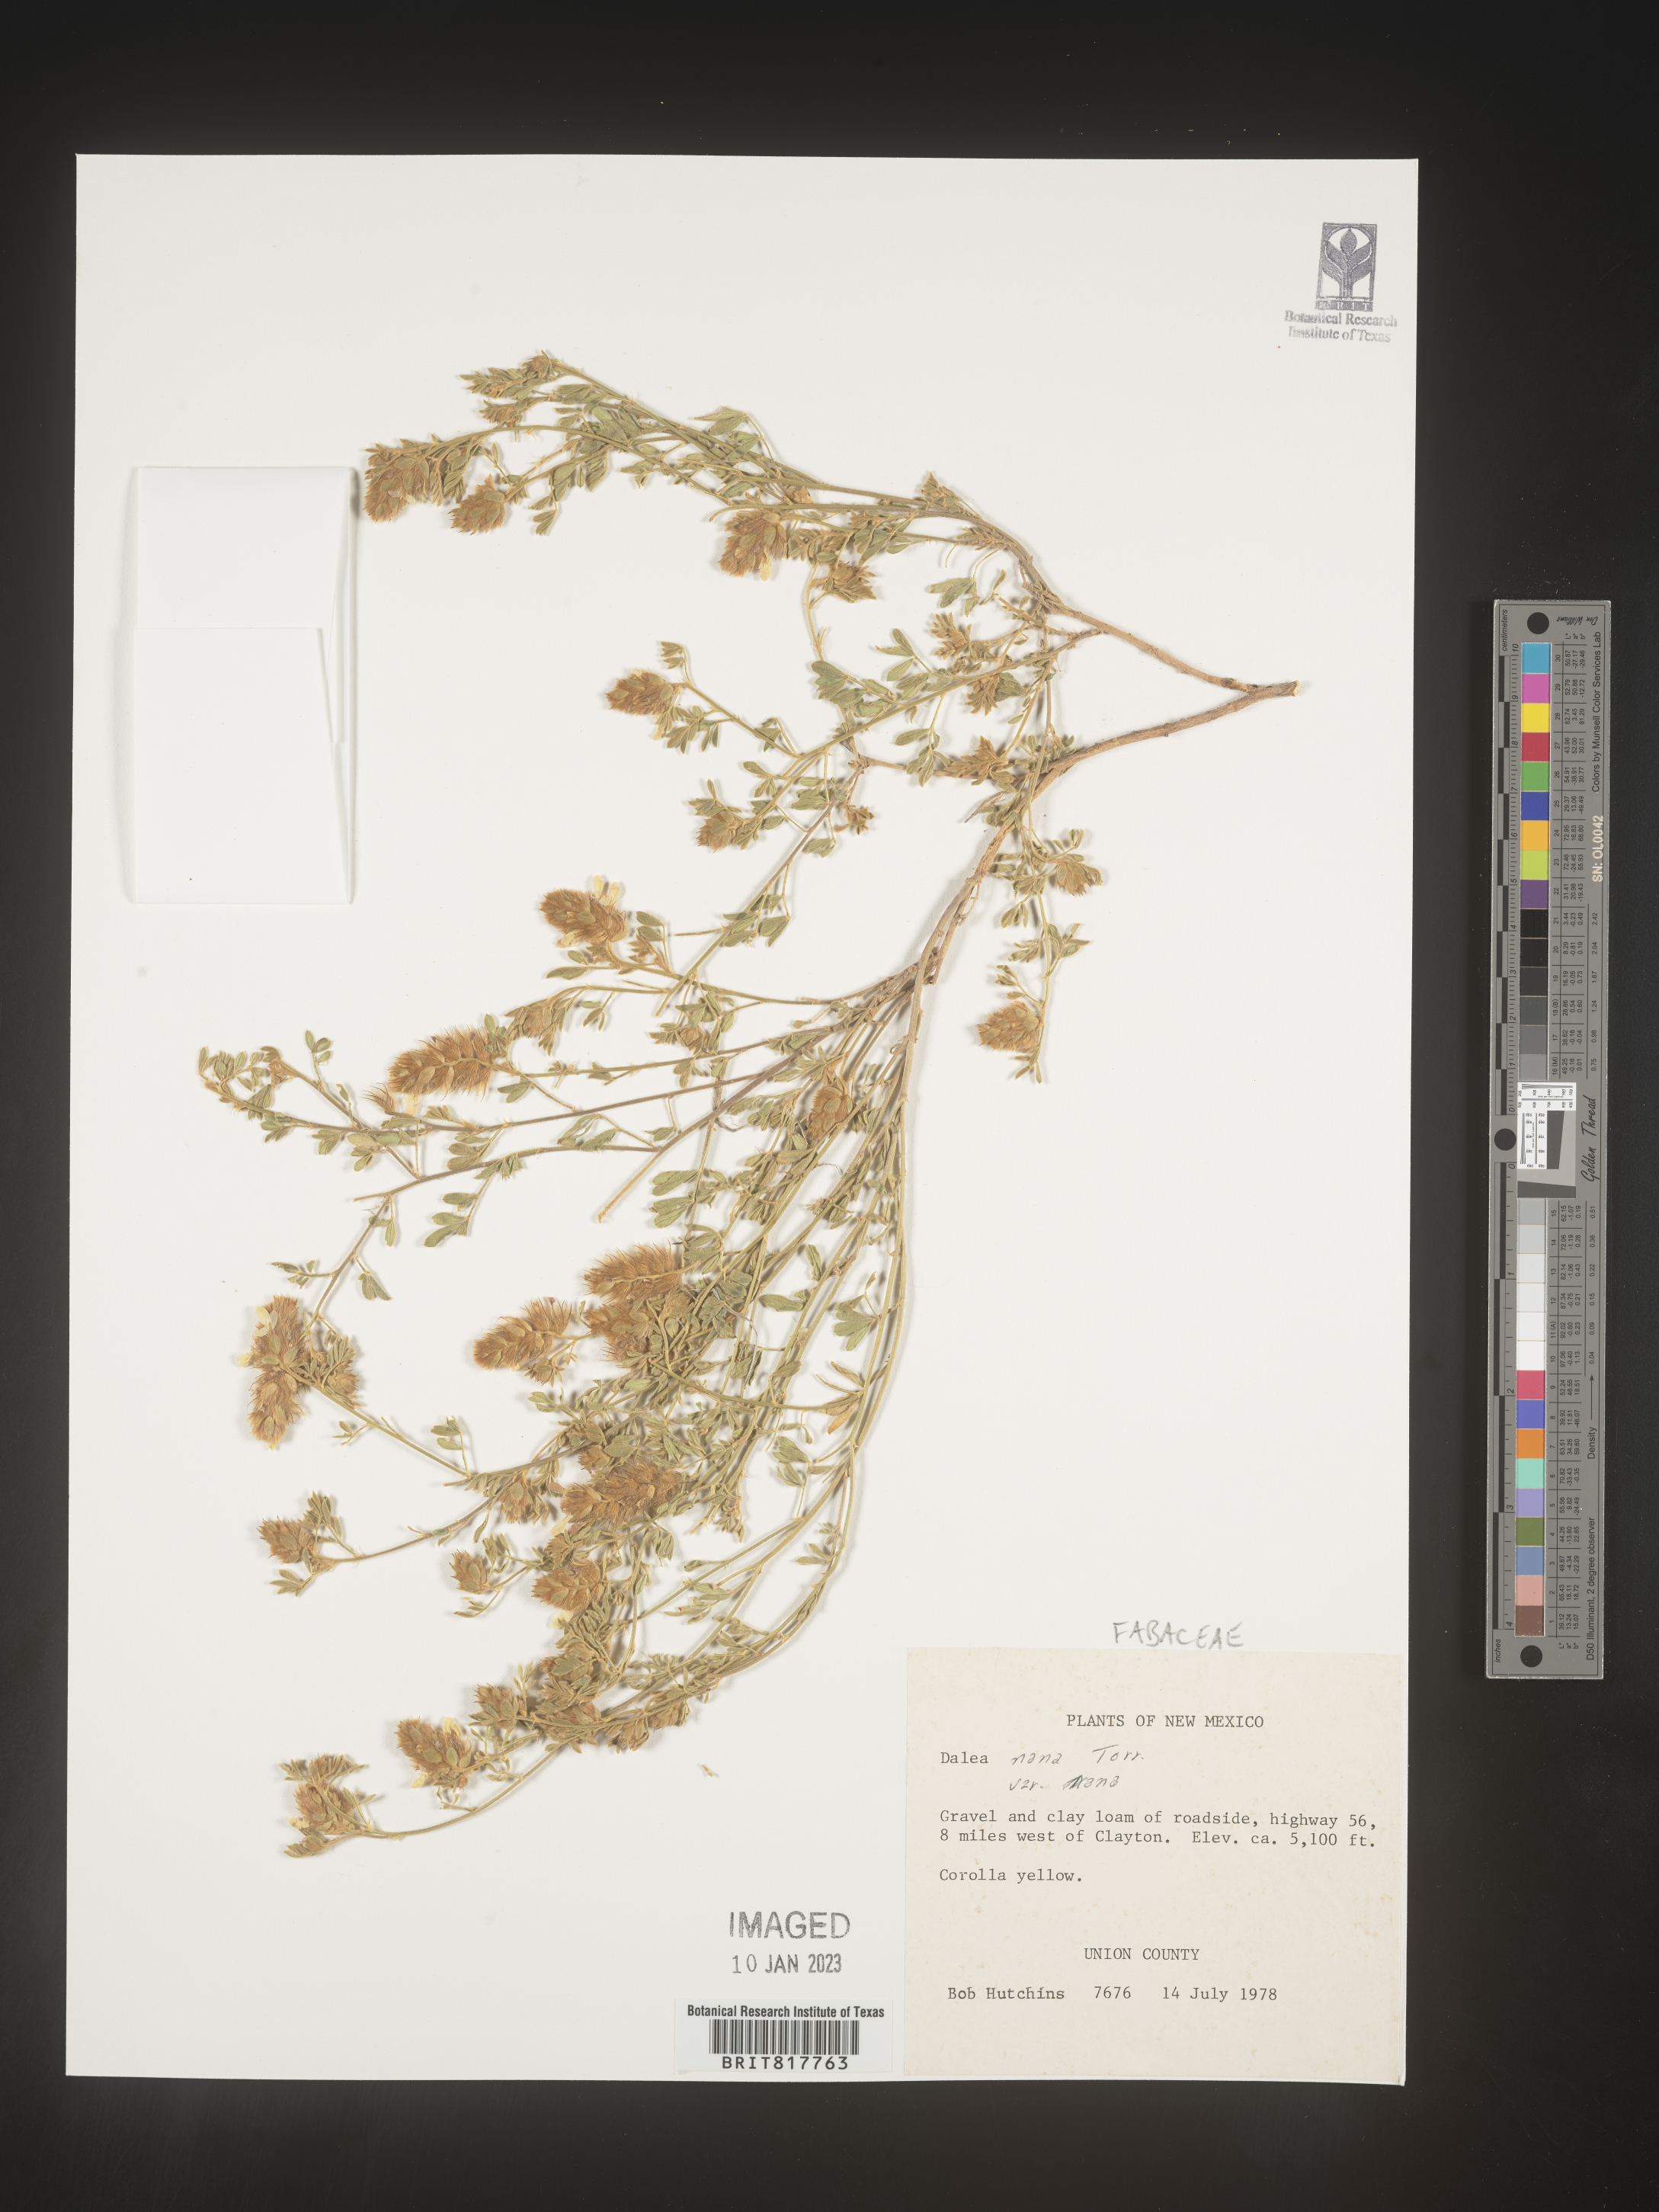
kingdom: Plantae
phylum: Tracheophyta
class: Magnoliopsida
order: Fabales
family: Fabaceae
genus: Dalea
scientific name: Dalea nana
